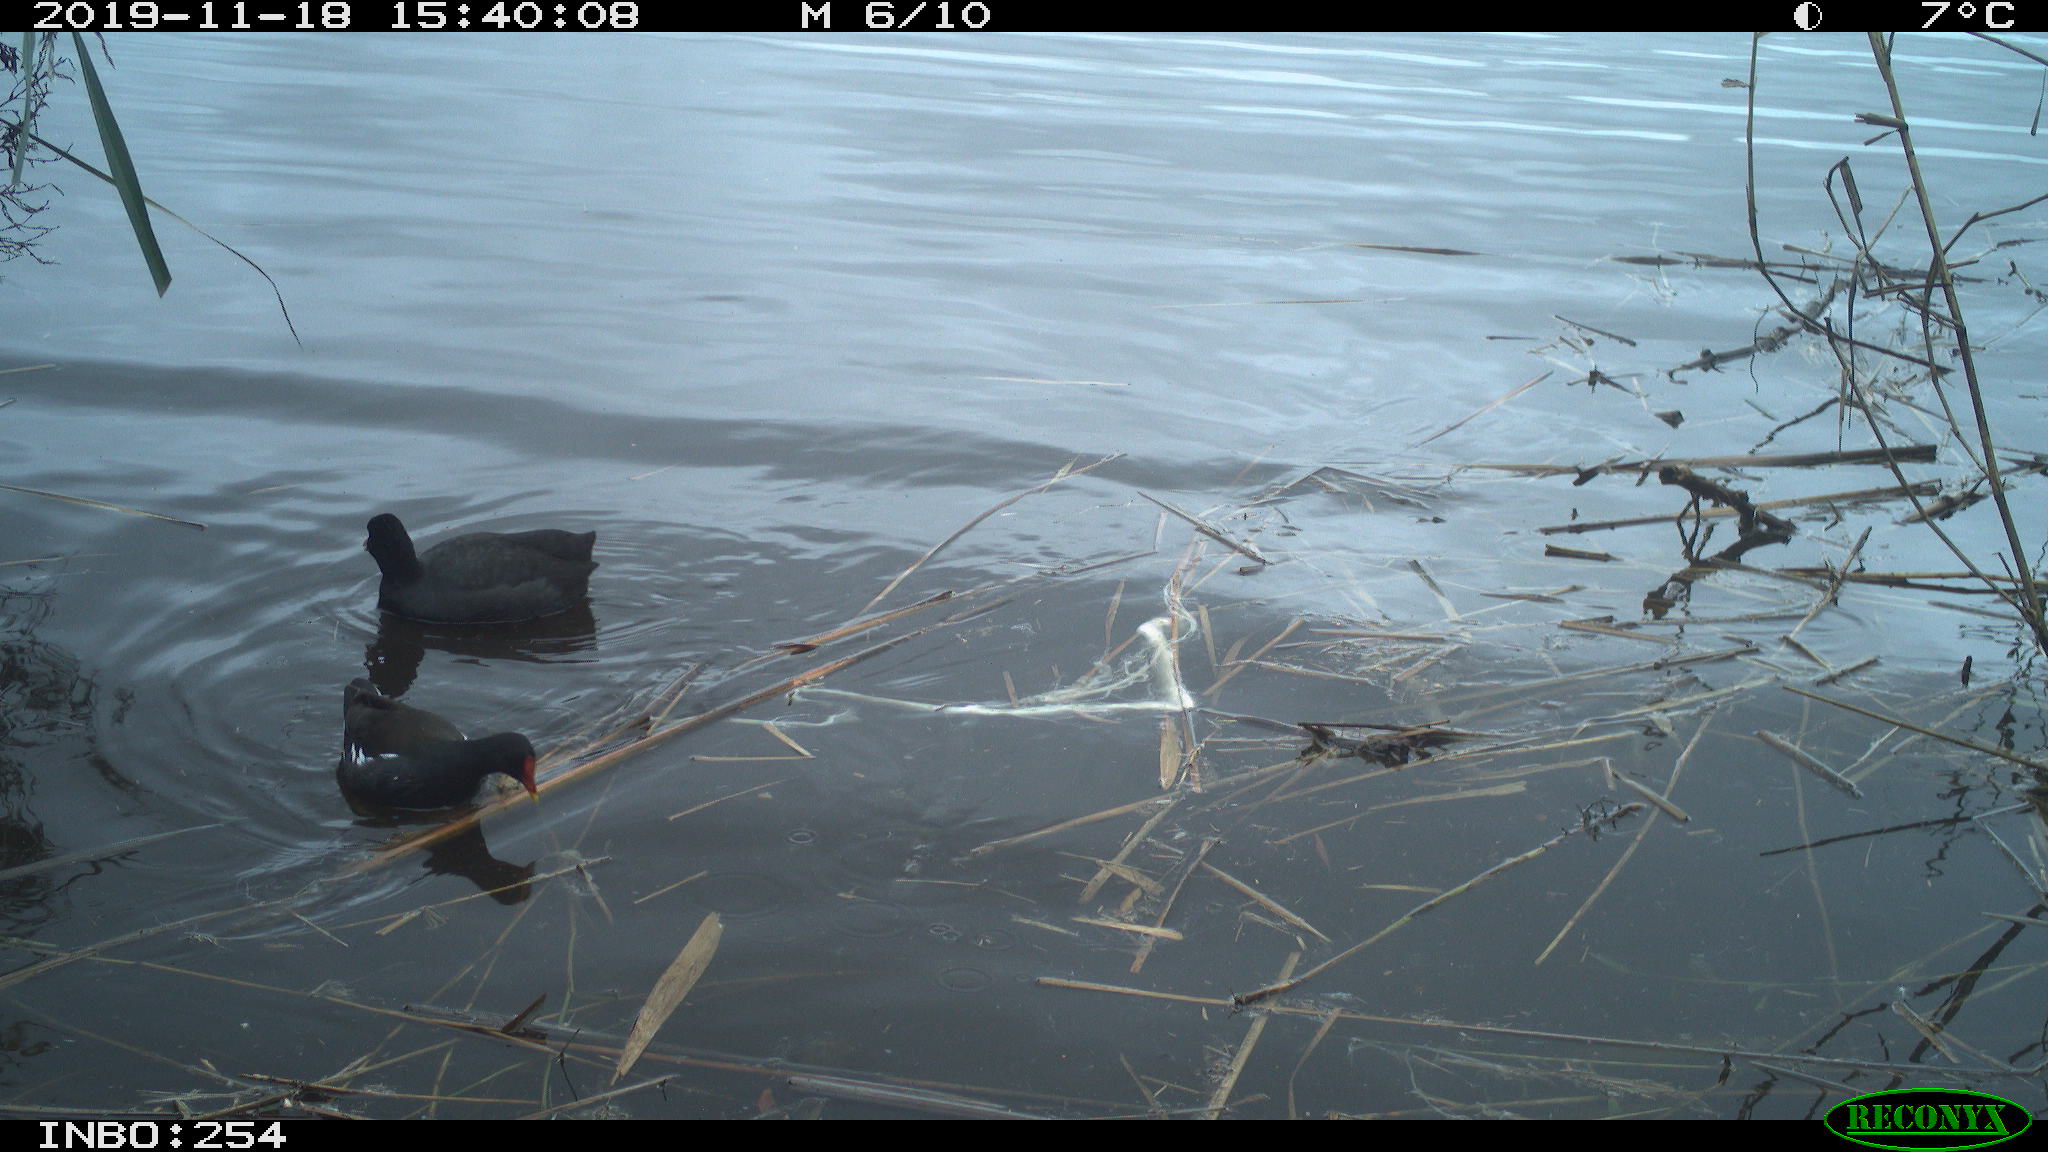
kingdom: Animalia
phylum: Chordata
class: Aves
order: Gruiformes
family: Rallidae
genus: Gallinula
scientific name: Gallinula chloropus
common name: Common moorhen
